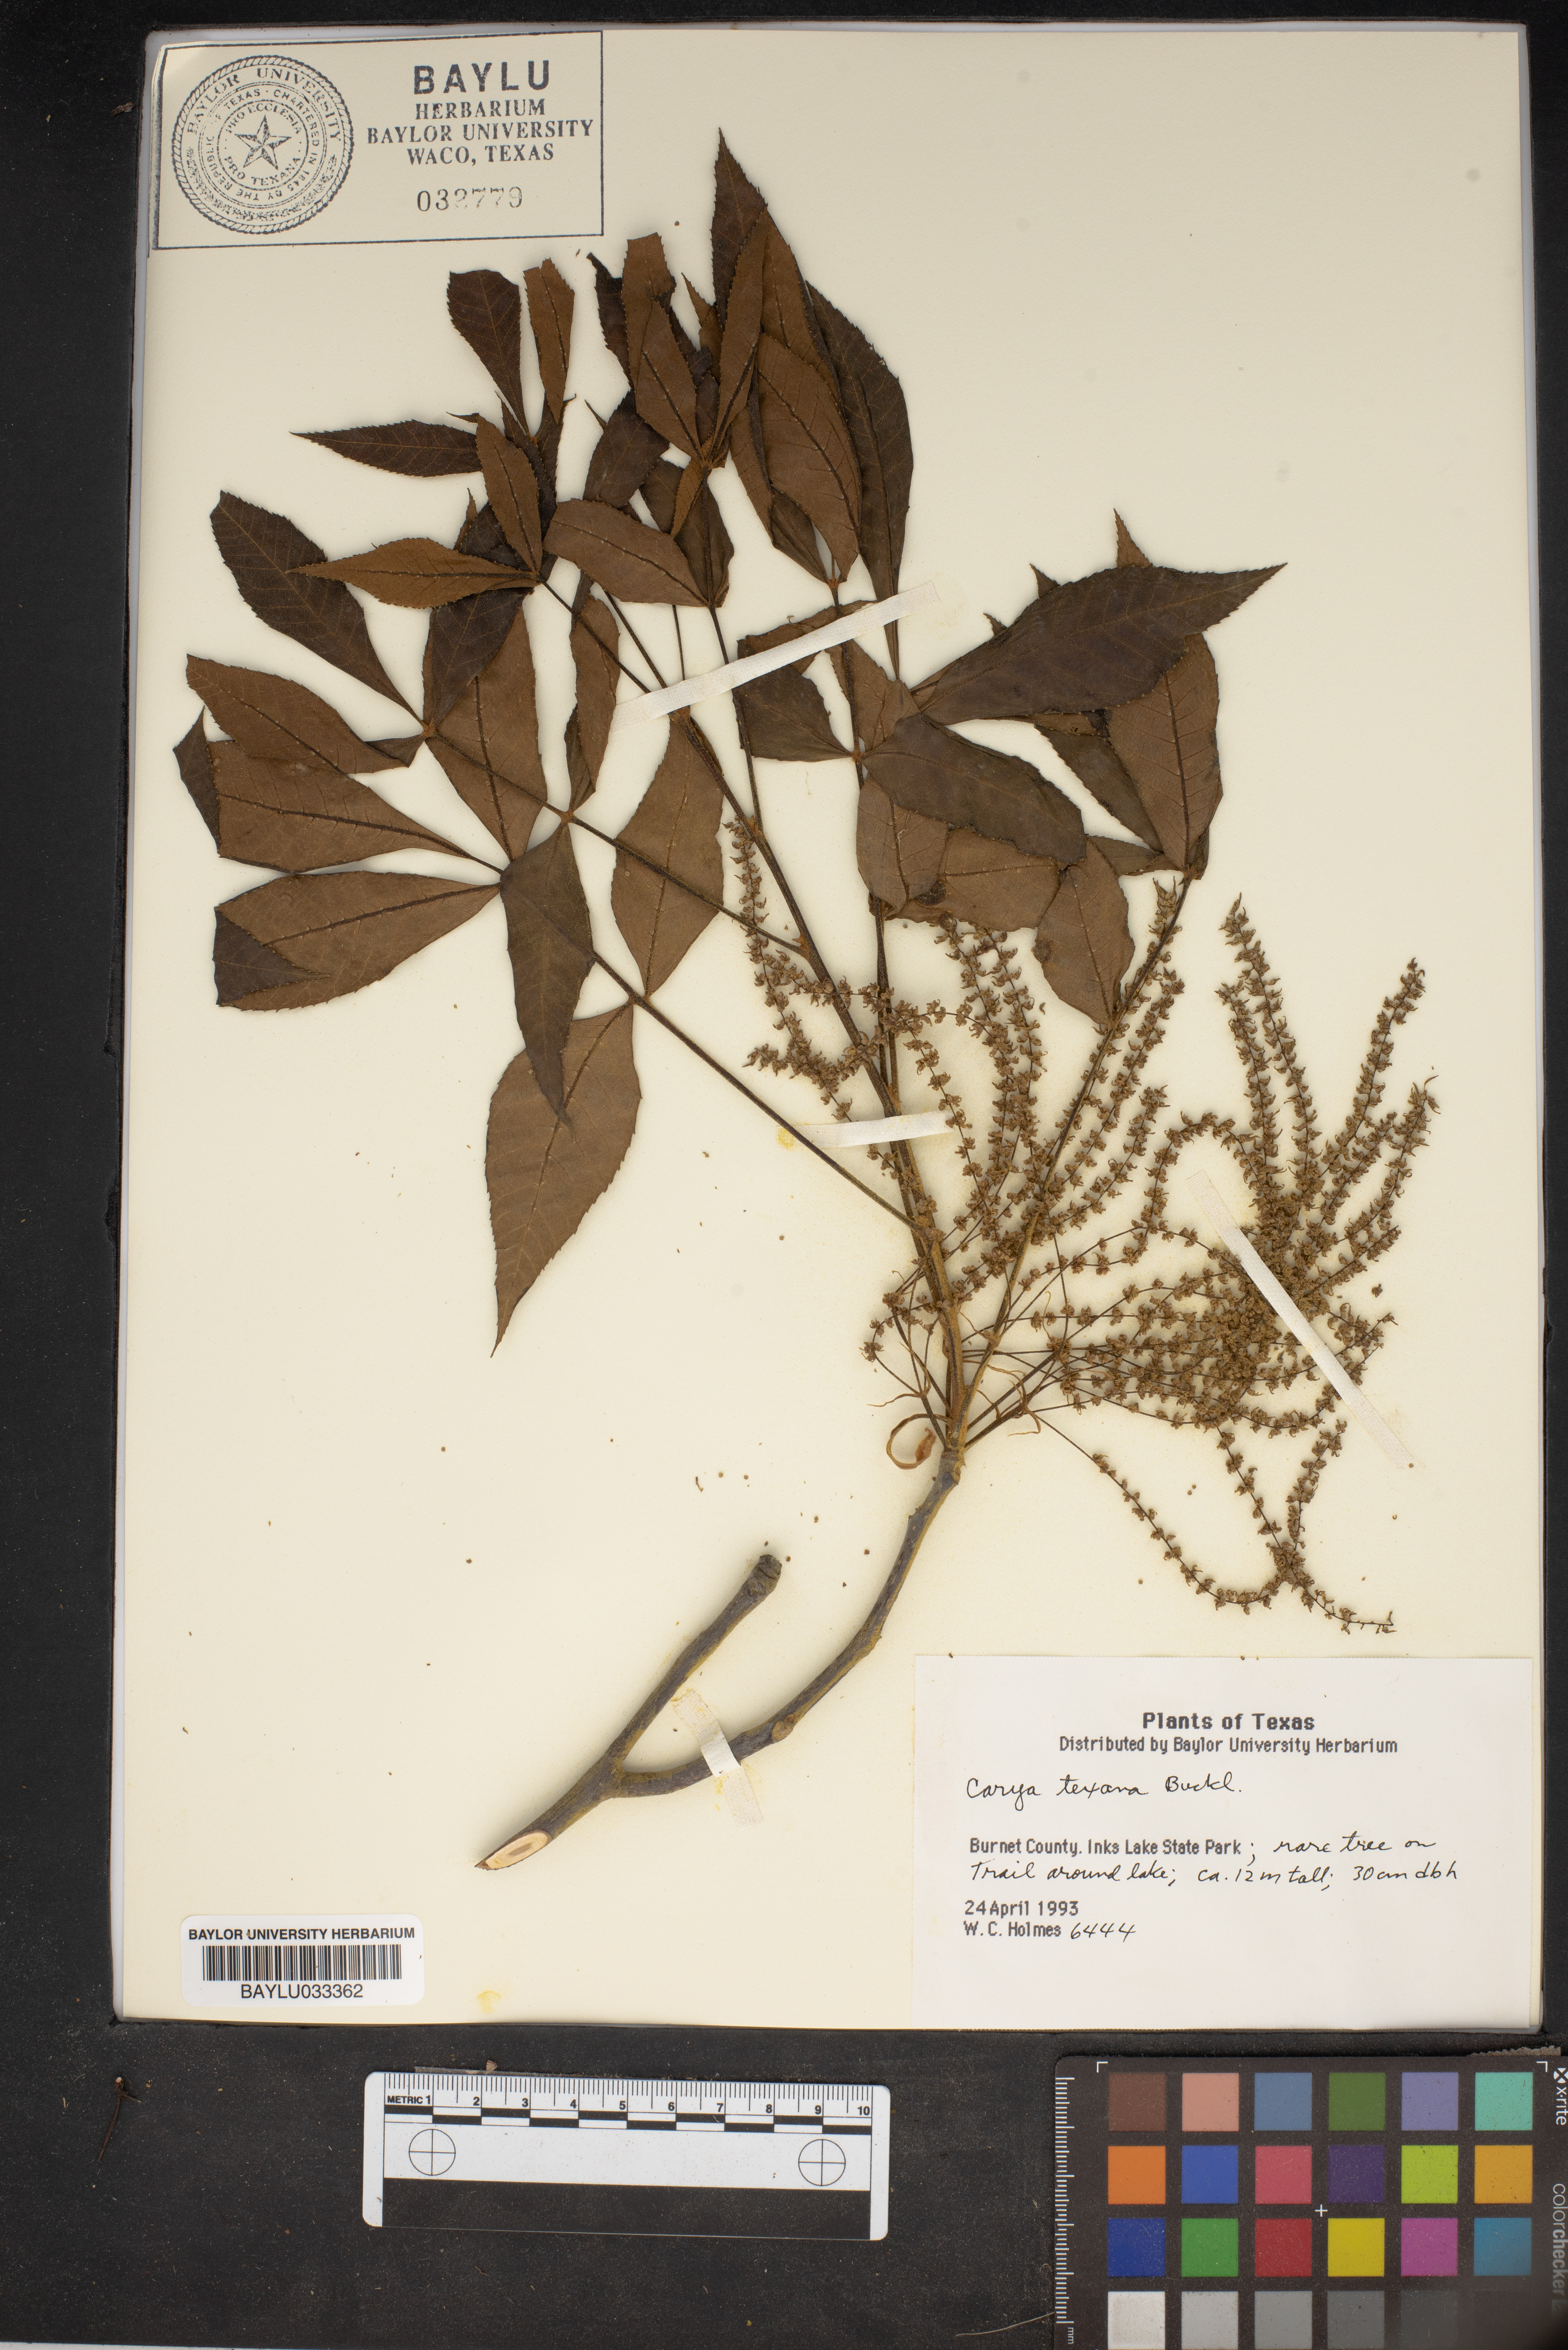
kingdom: Plantae
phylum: Tracheophyta
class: Magnoliopsida
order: Fagales
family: Juglandaceae
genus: Carya
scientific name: Carya texana
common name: Black hickory
